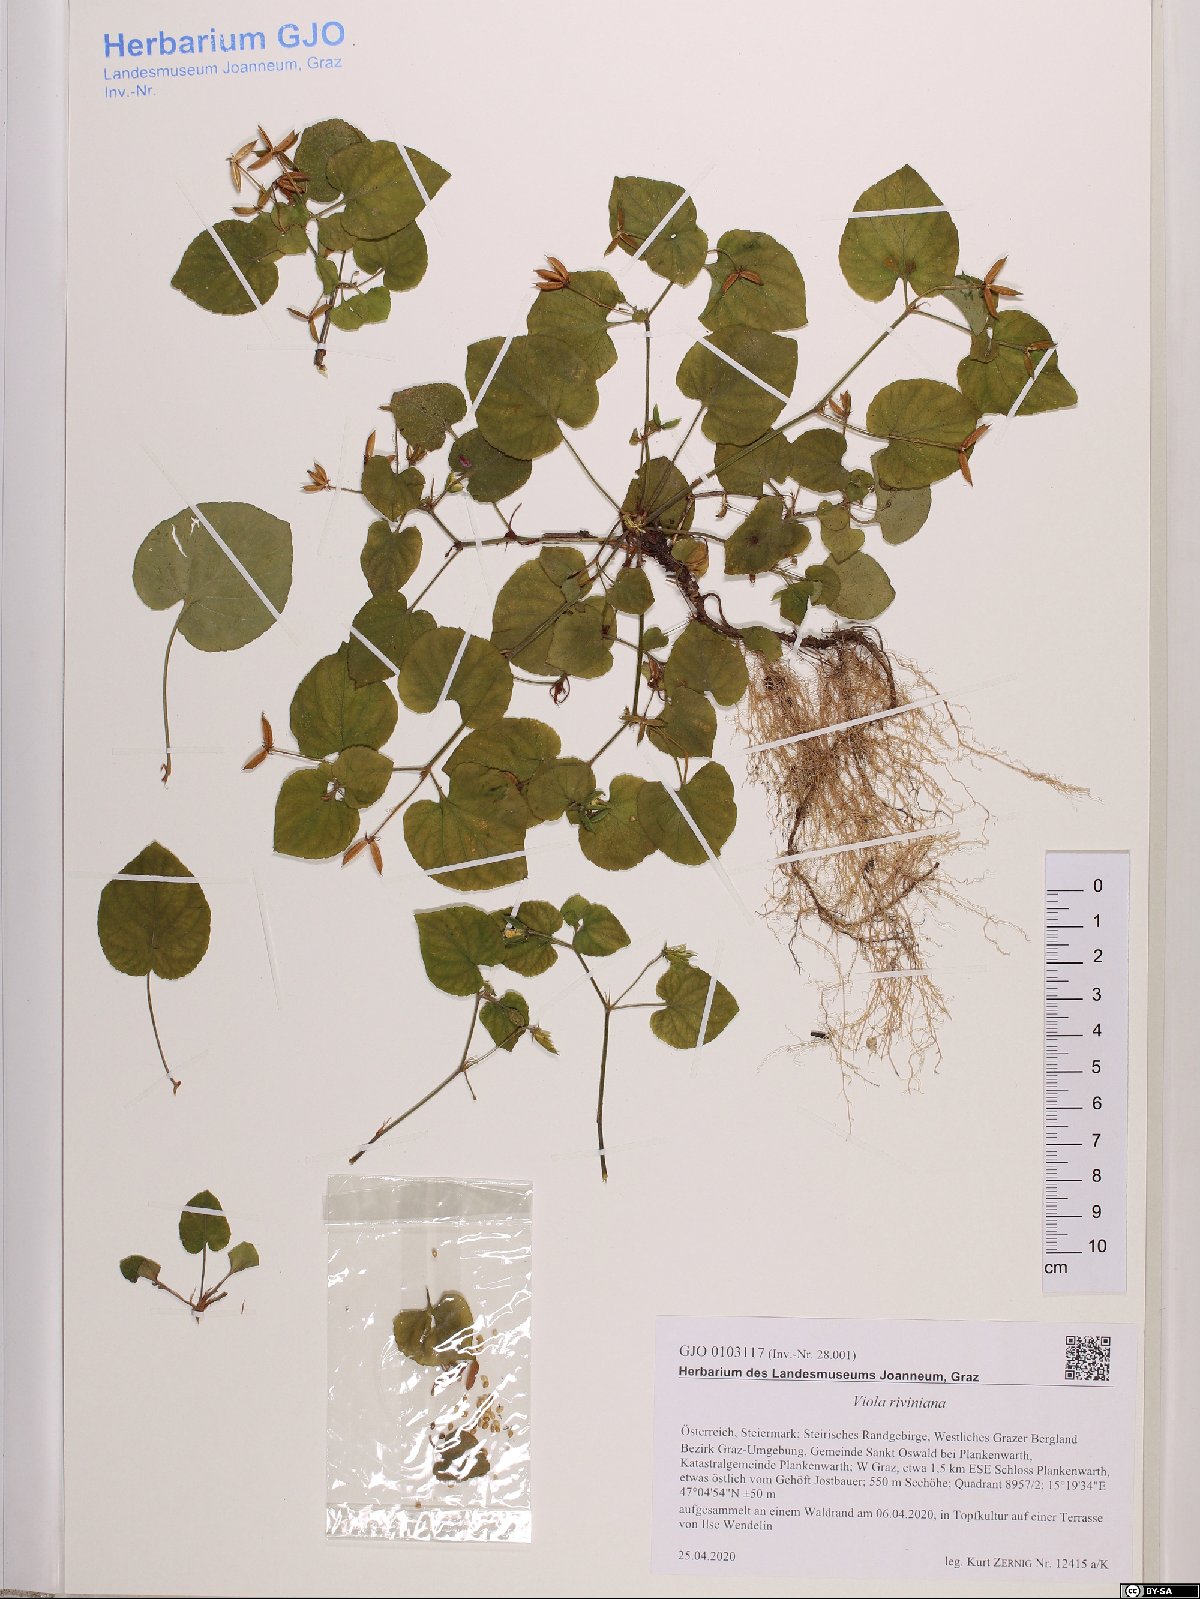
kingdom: Plantae
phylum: Tracheophyta
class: Magnoliopsida
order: Malpighiales
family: Violaceae
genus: Viola
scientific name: Viola riviniana
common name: Common dog-violet
